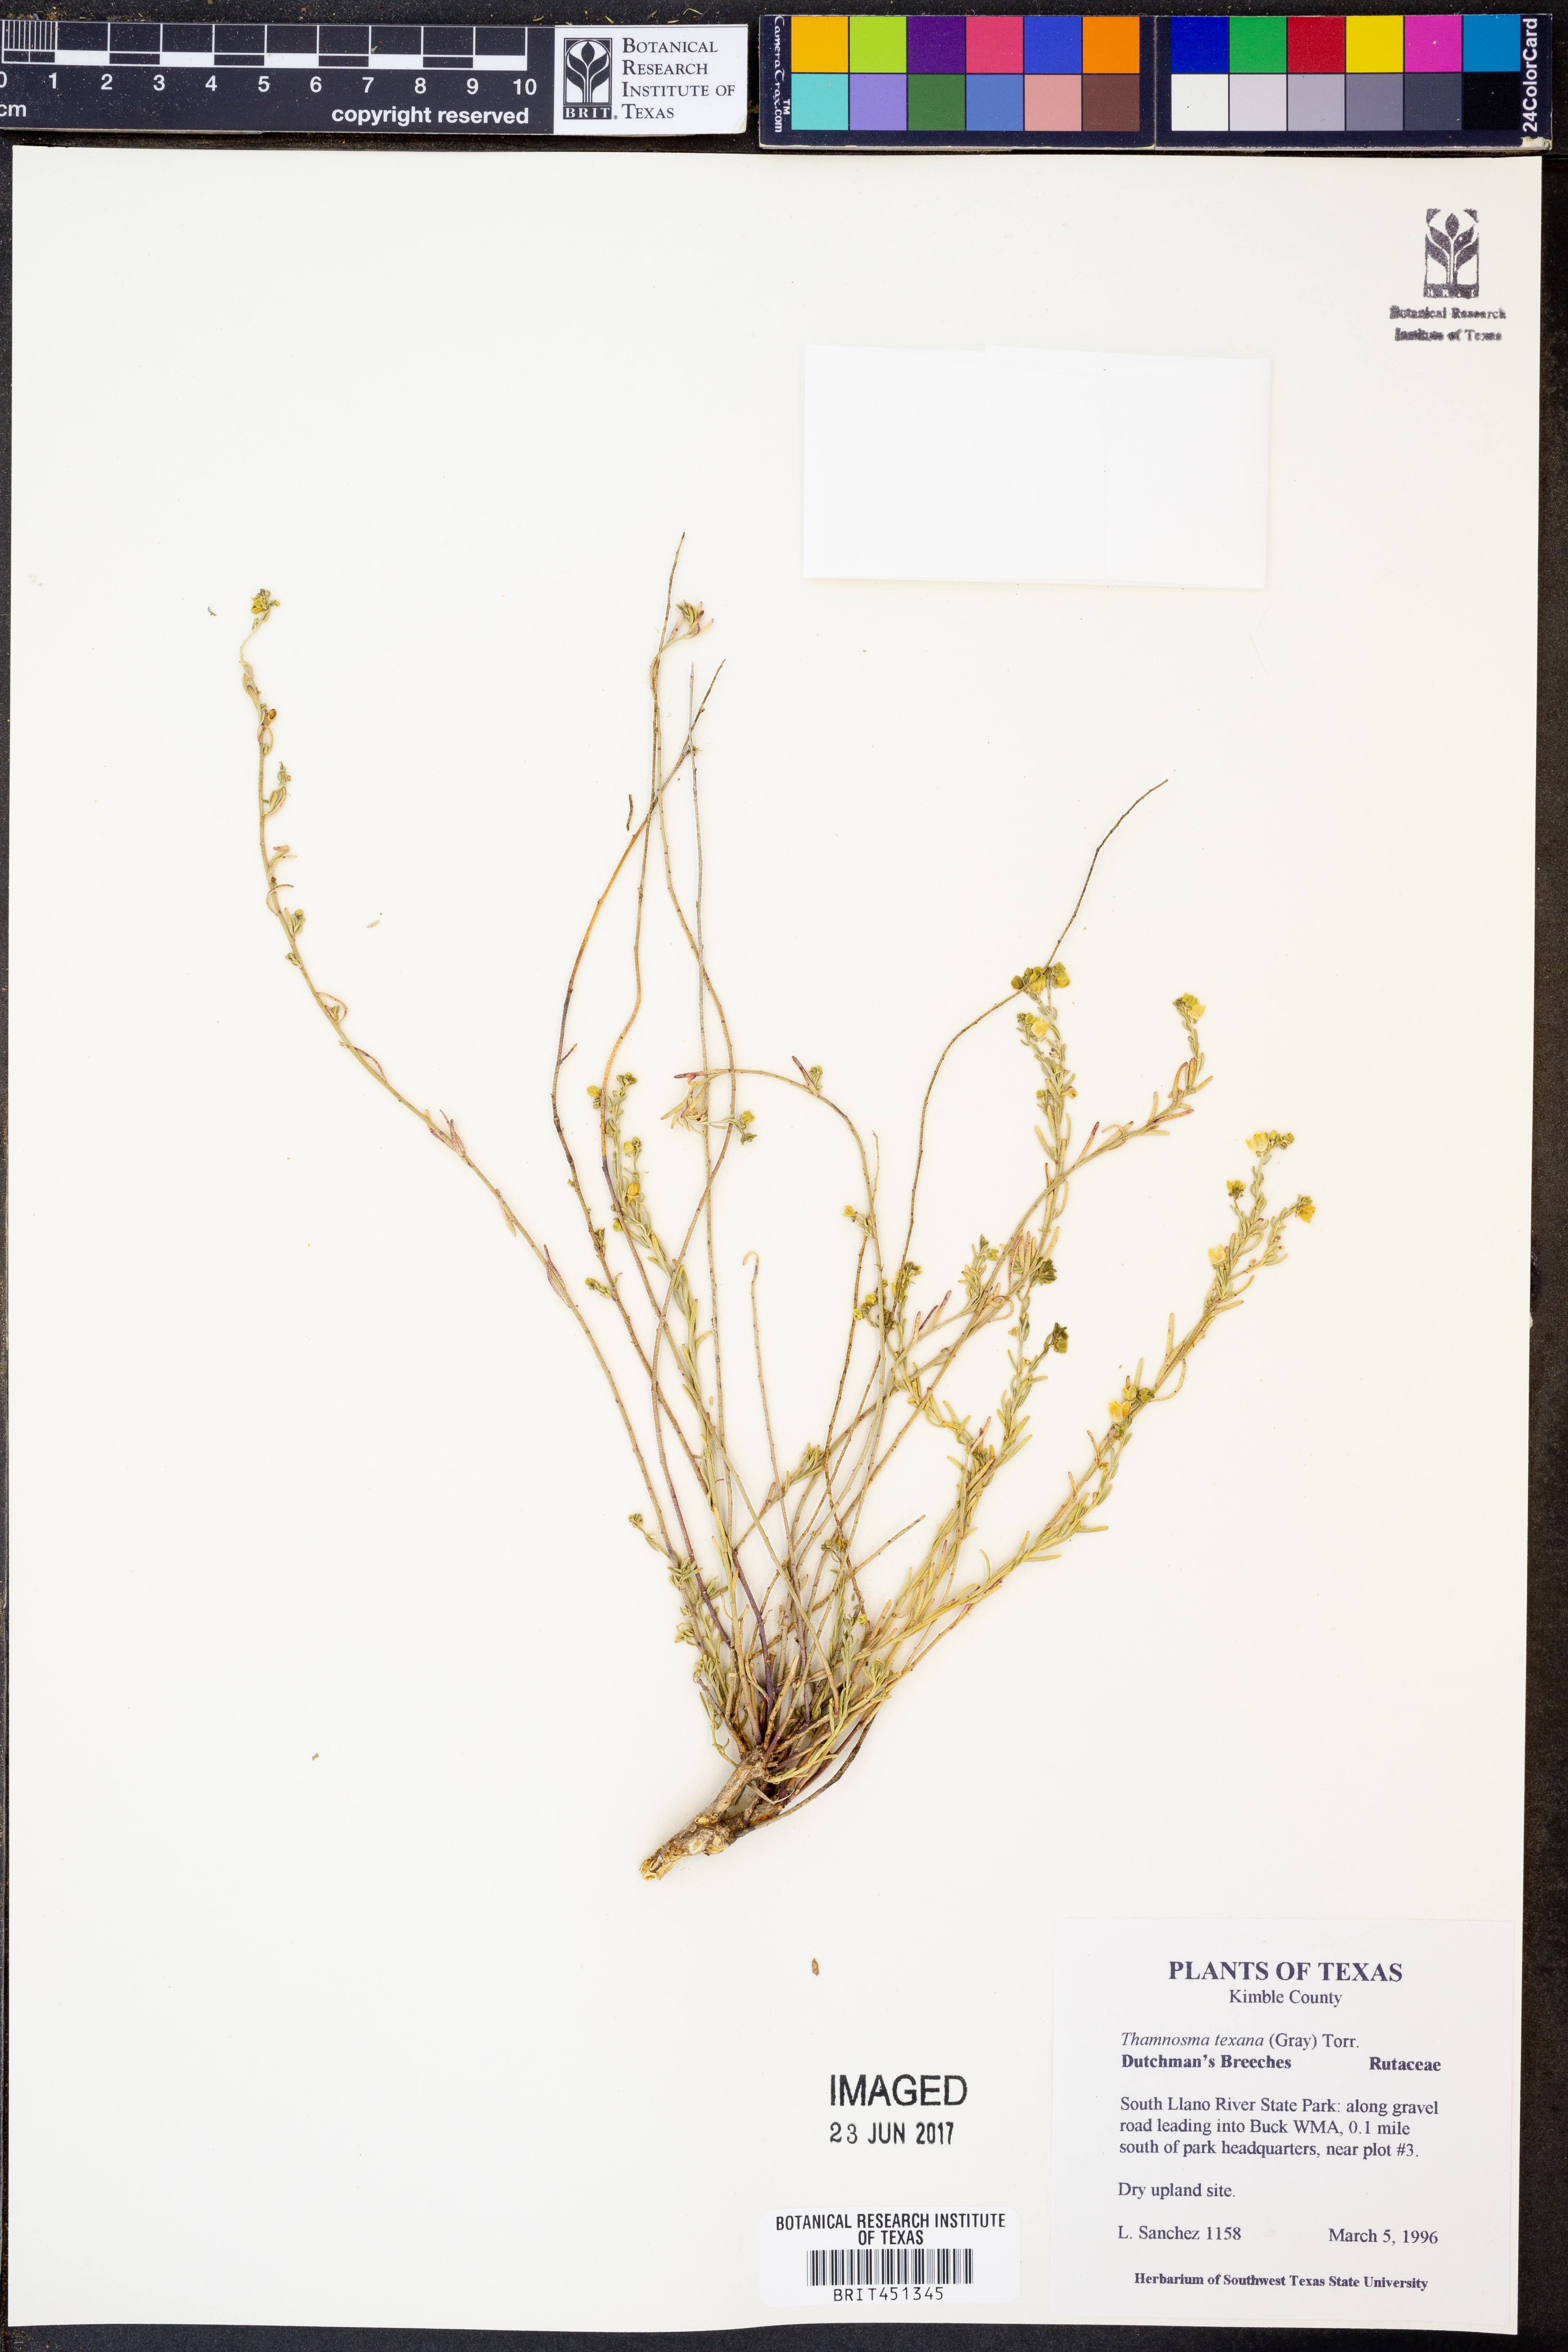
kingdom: Plantae
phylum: Tracheophyta
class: Magnoliopsida
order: Sapindales
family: Rutaceae
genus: Thamnosma
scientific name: Thamnosma texana
